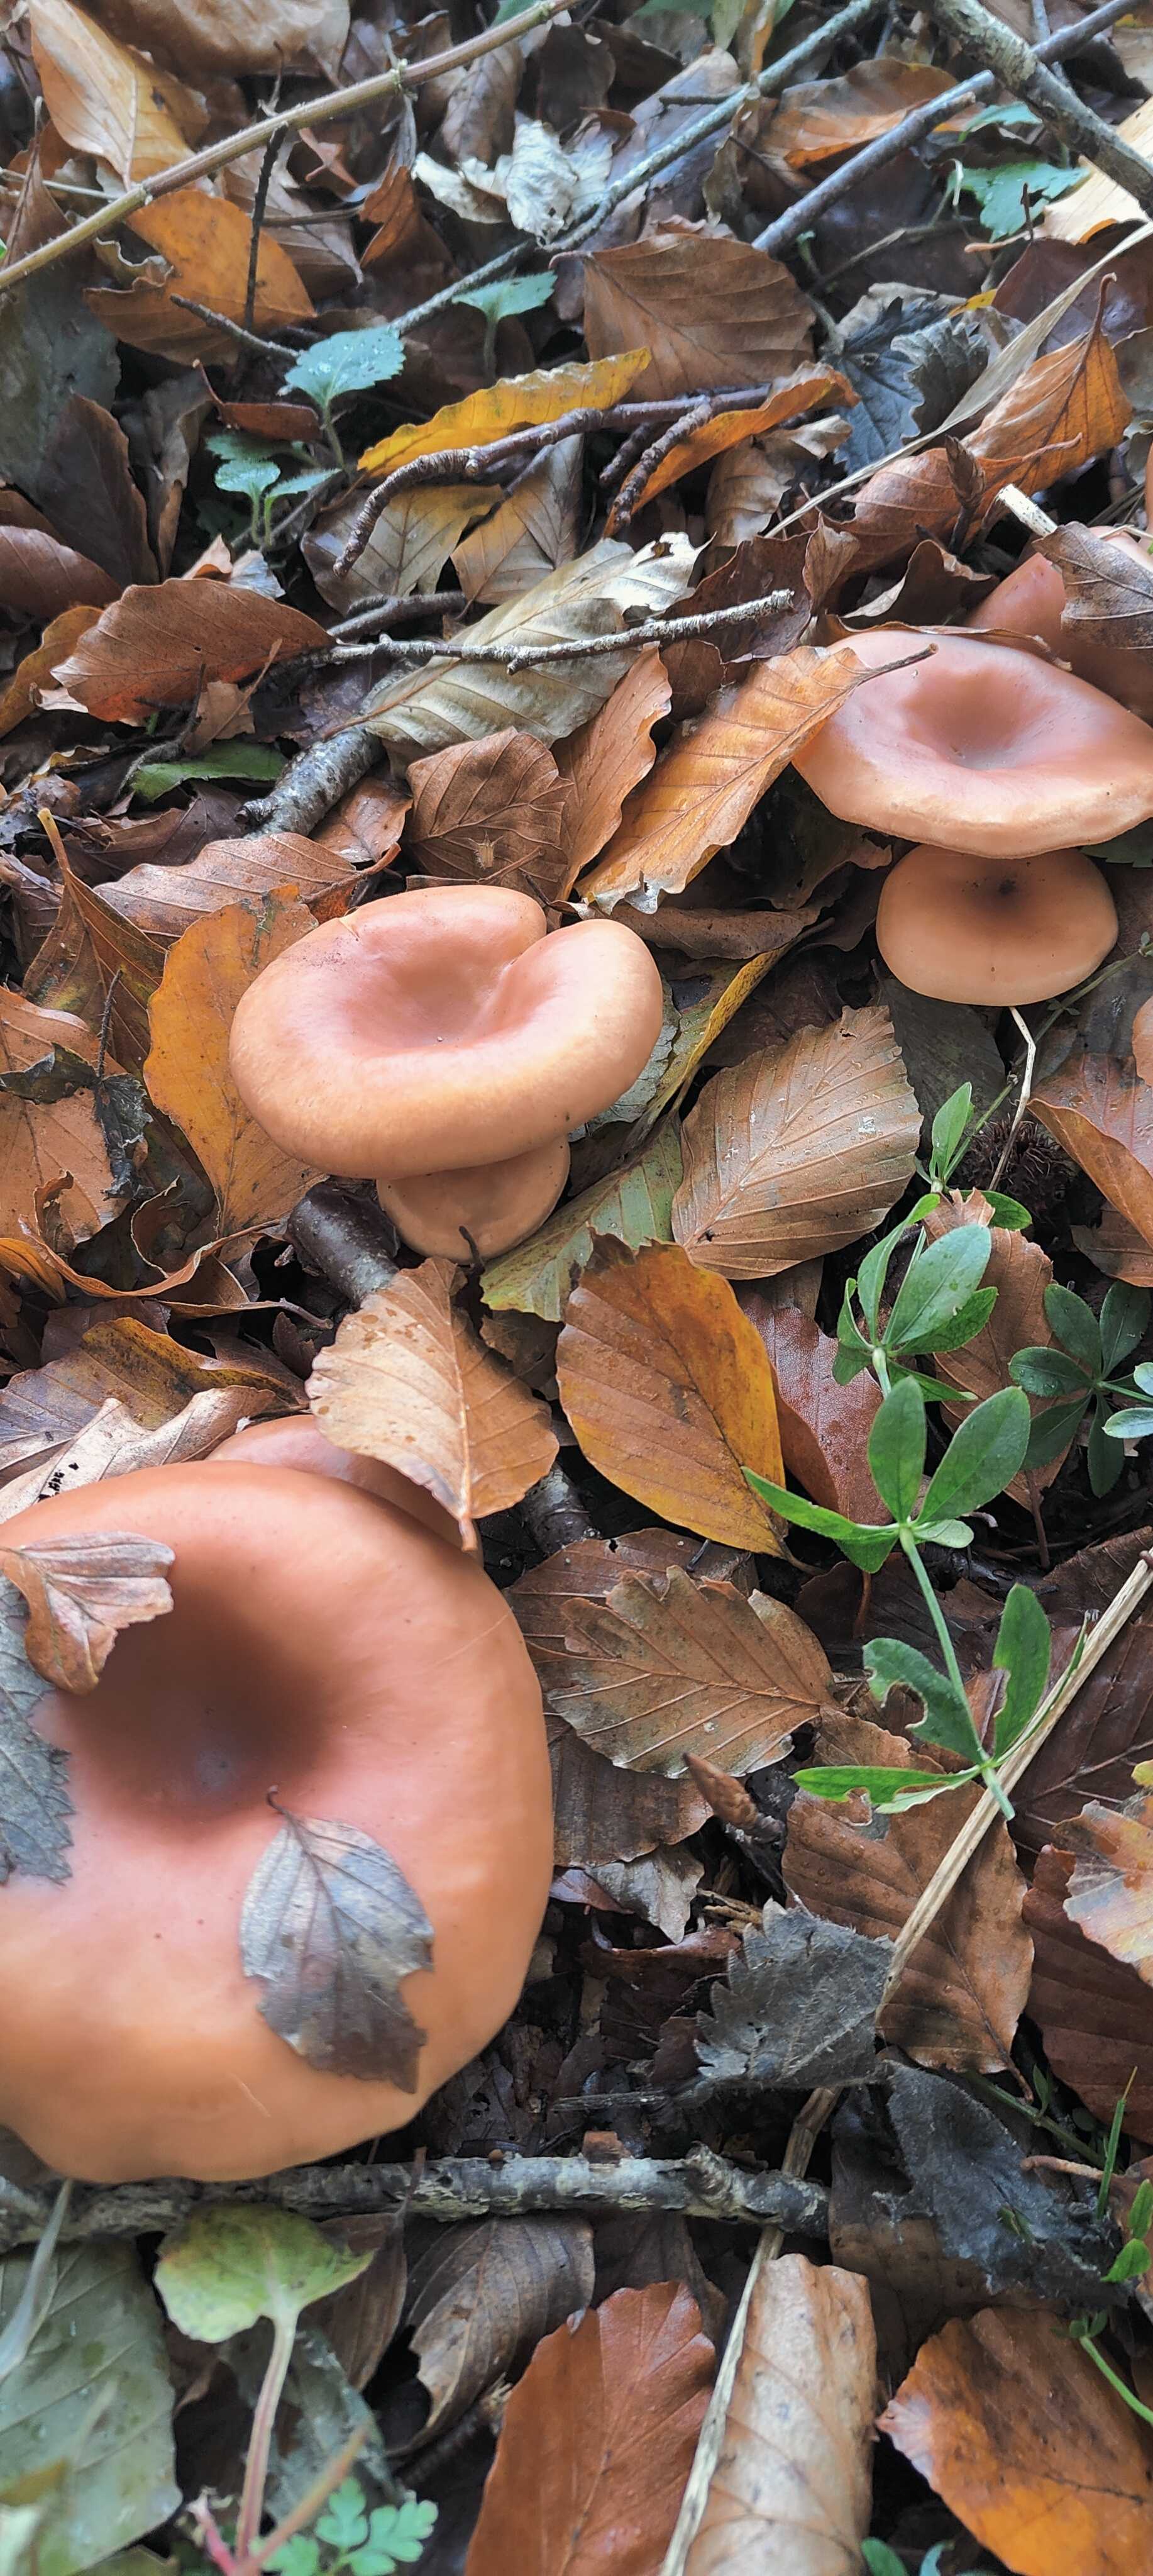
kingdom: Fungi
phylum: Basidiomycota
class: Agaricomycetes
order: Agaricales
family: Tricholomataceae
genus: Paralepista
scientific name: Paralepista flaccida
